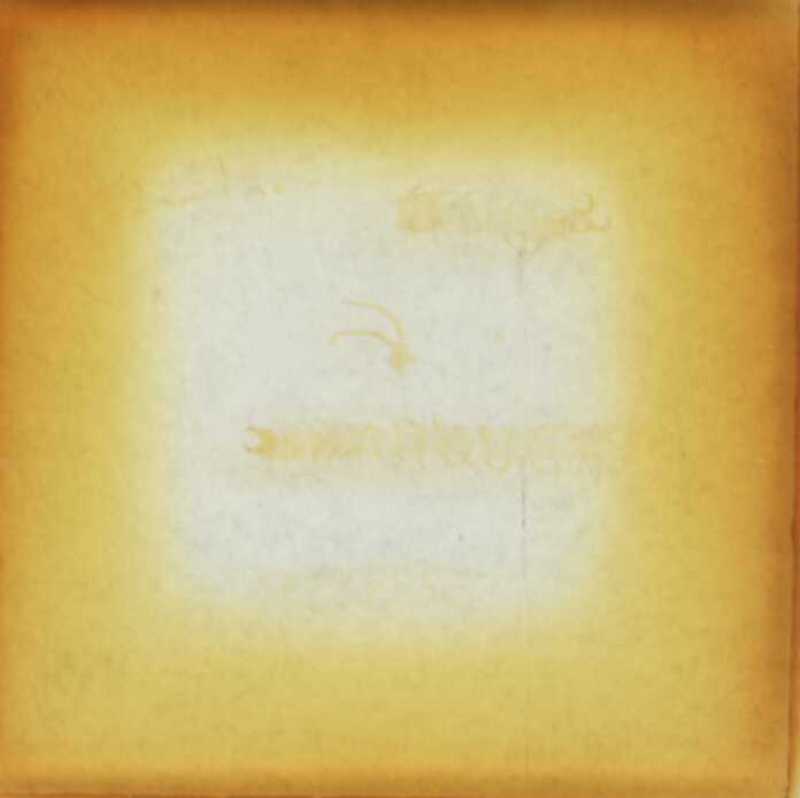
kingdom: Animalia
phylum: Arthropoda
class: Chilopoda
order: Geophilomorpha
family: Geophilidae
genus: Aztekophilus
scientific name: Aztekophilus storkani
